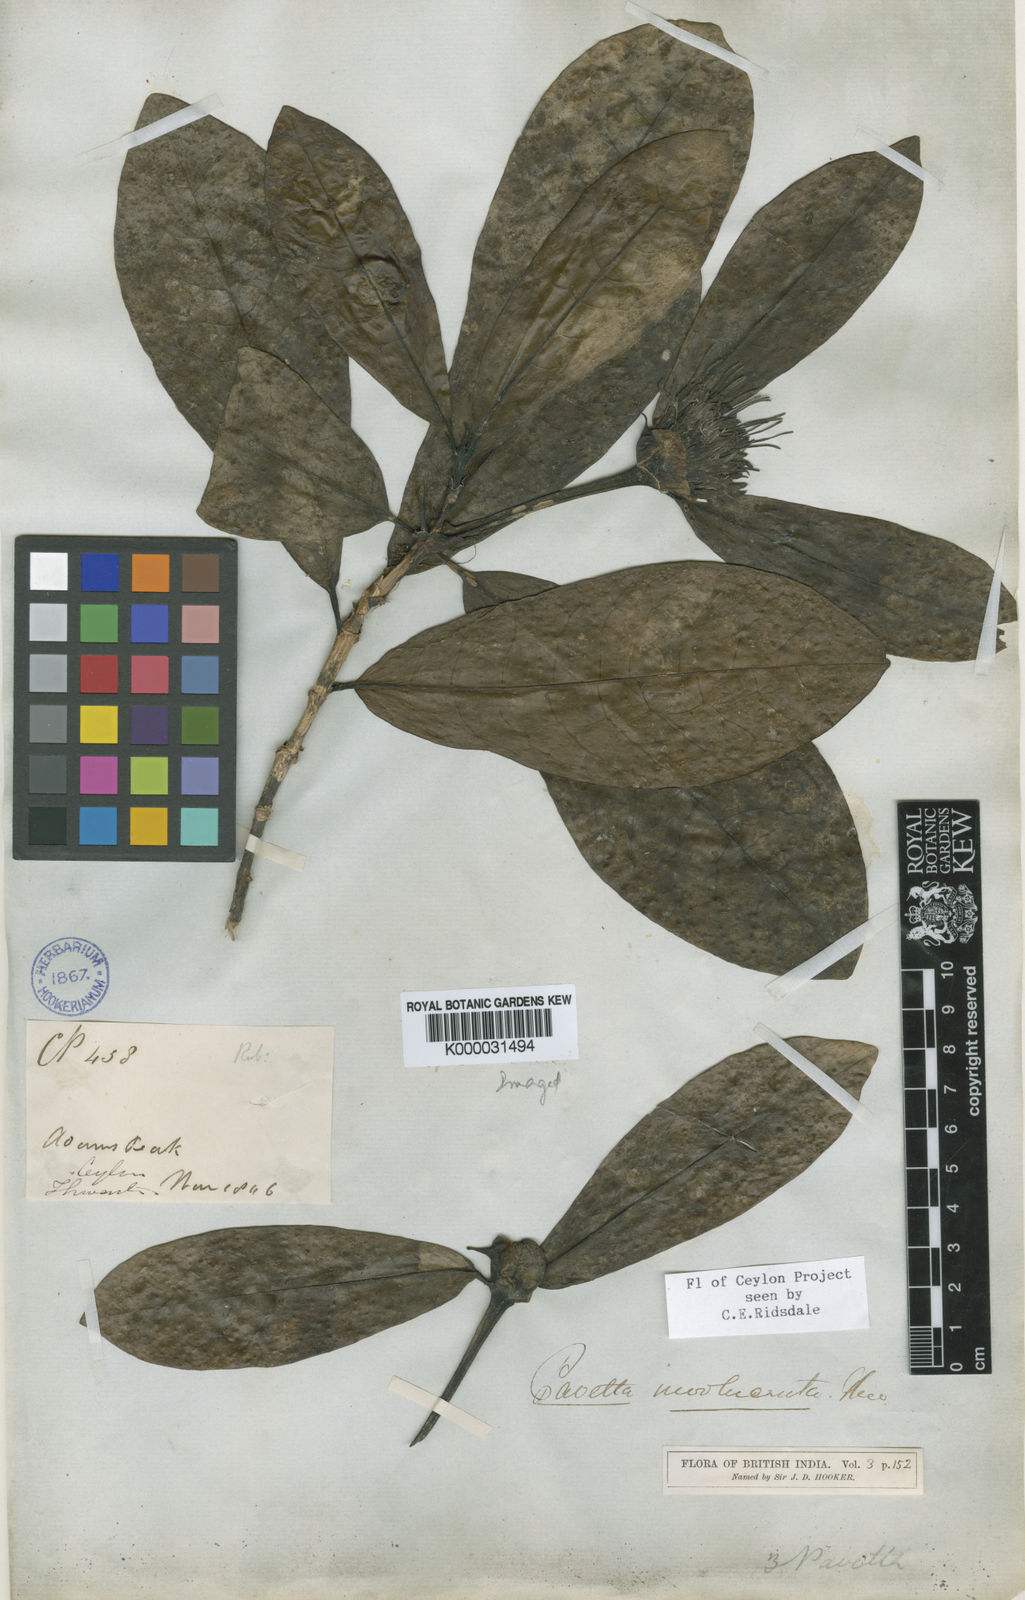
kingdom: Plantae
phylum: Tracheophyta
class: Magnoliopsida
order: Gentianales
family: Rubiaceae
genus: Pavetta
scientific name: Pavetta involucrata
